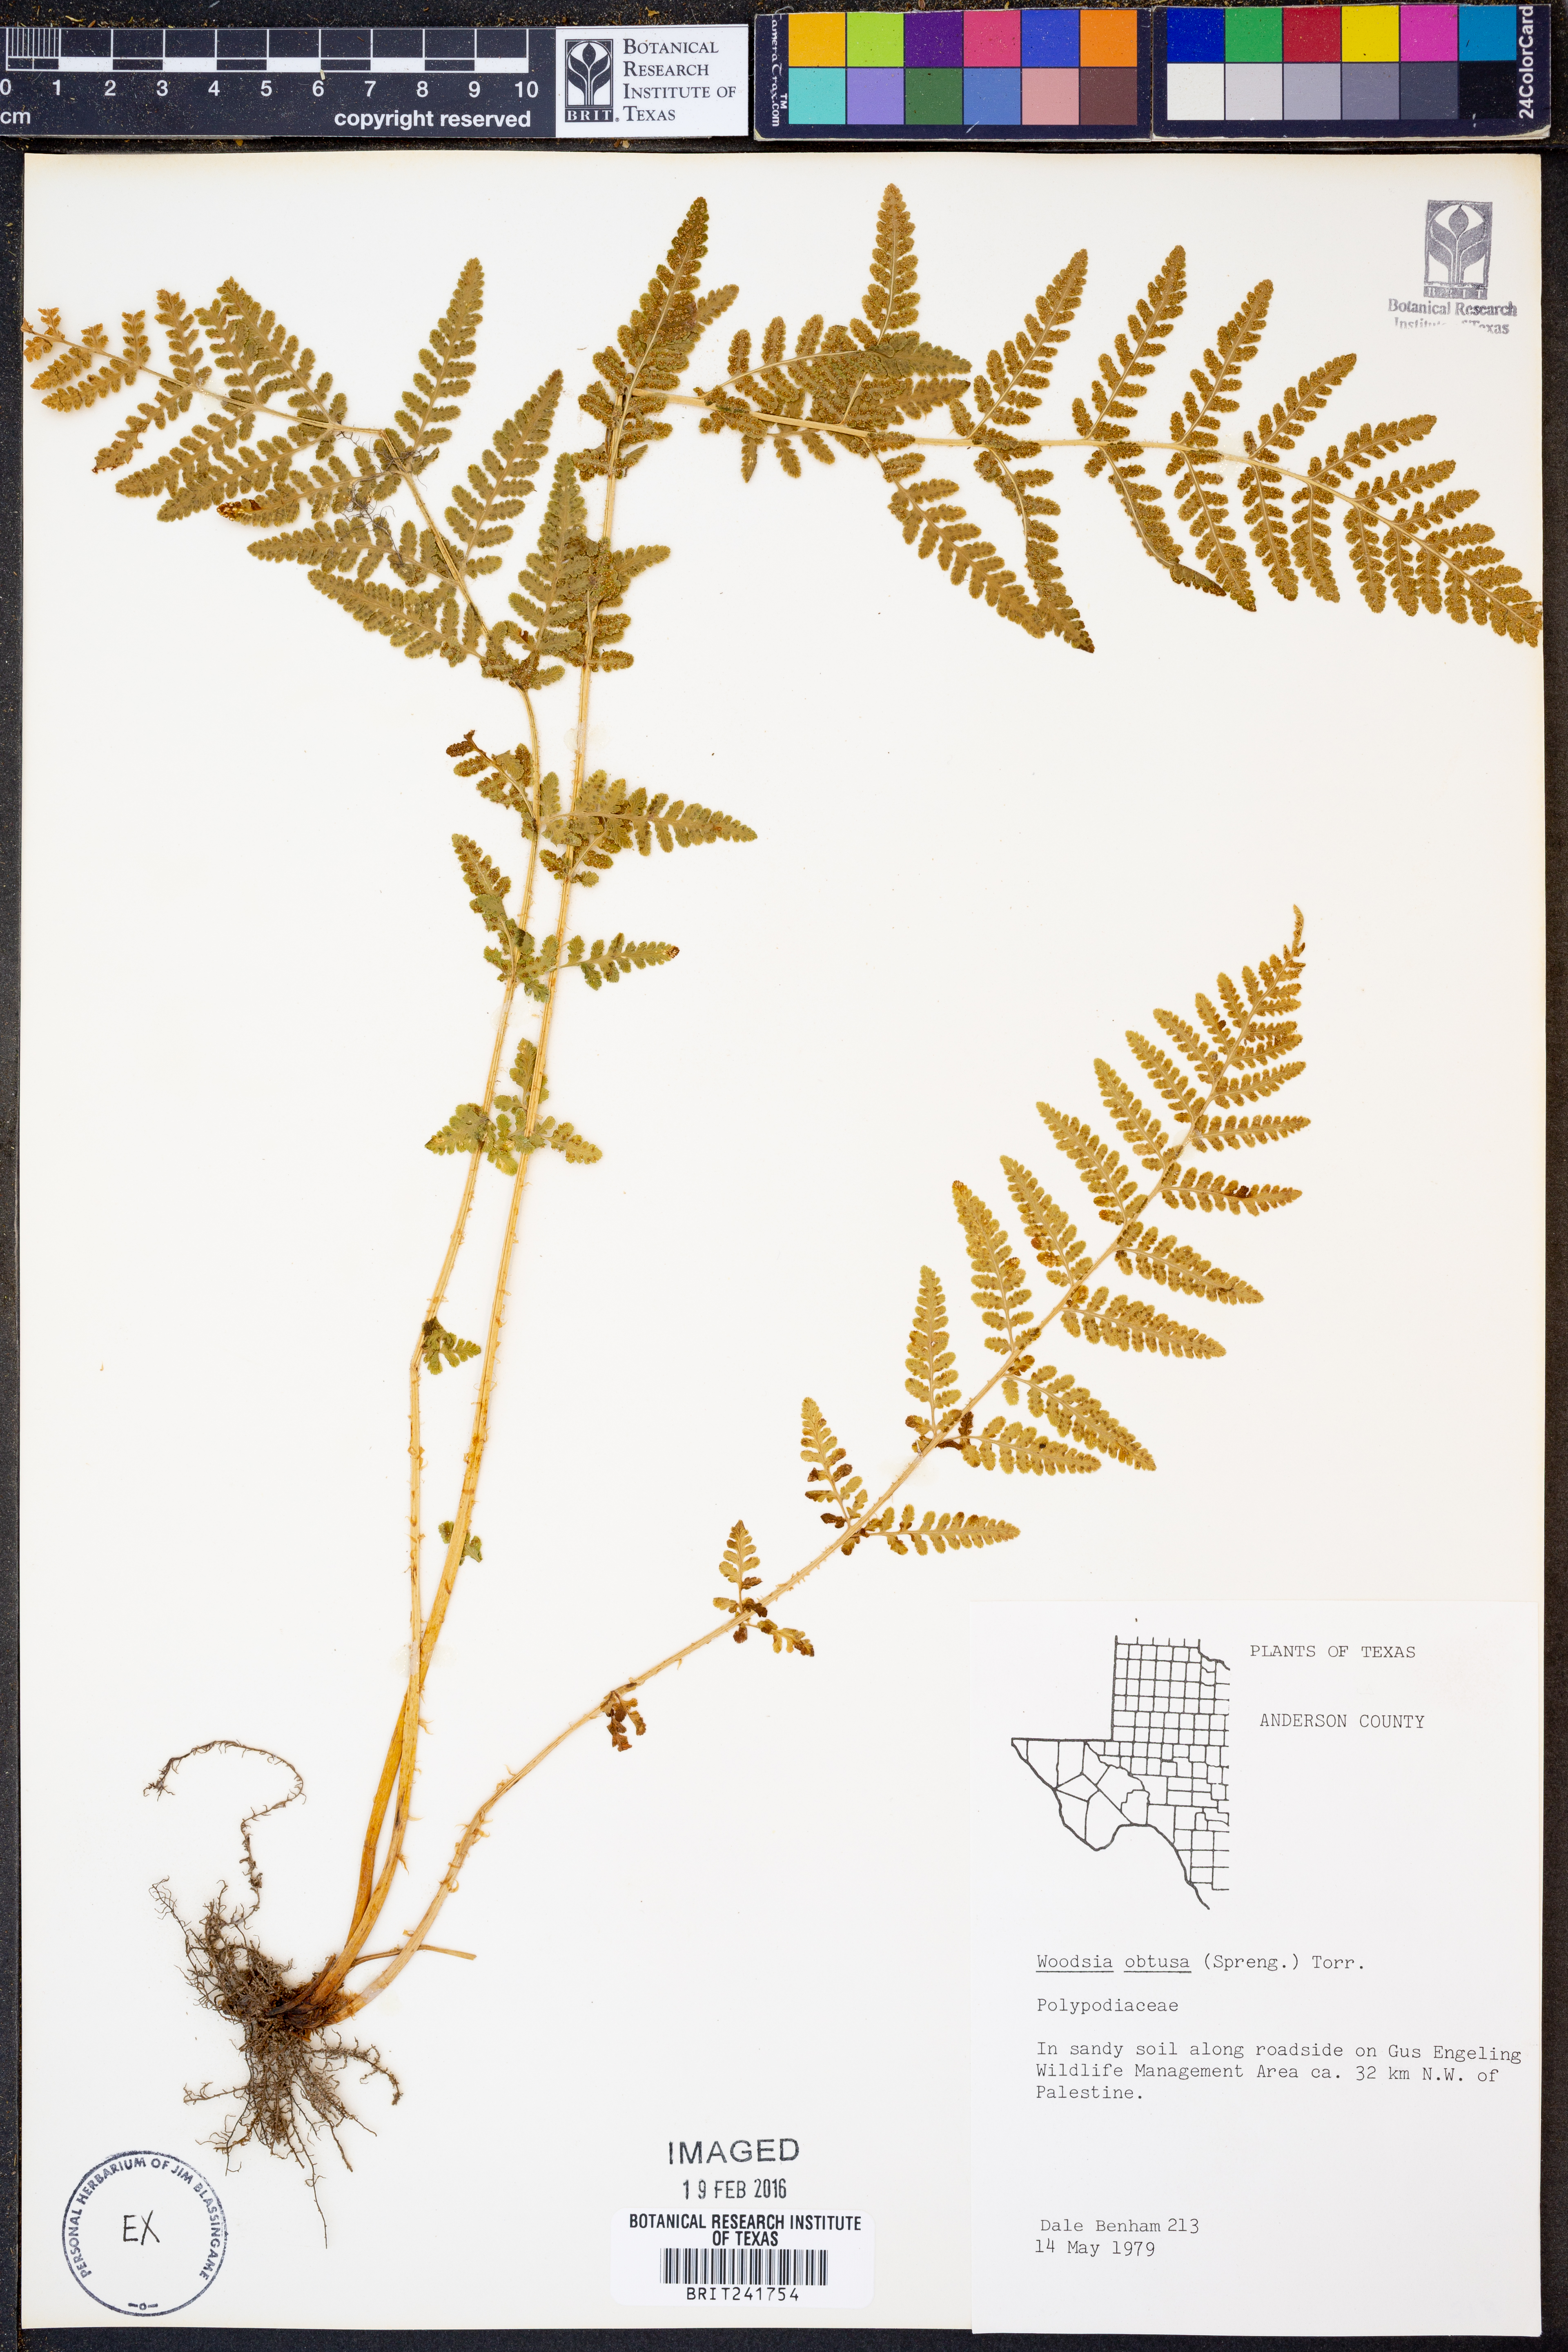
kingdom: Plantae
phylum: Tracheophyta
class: Polypodiopsida
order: Polypodiales
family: Woodsiaceae
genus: Physematium
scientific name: Physematium obtusum
